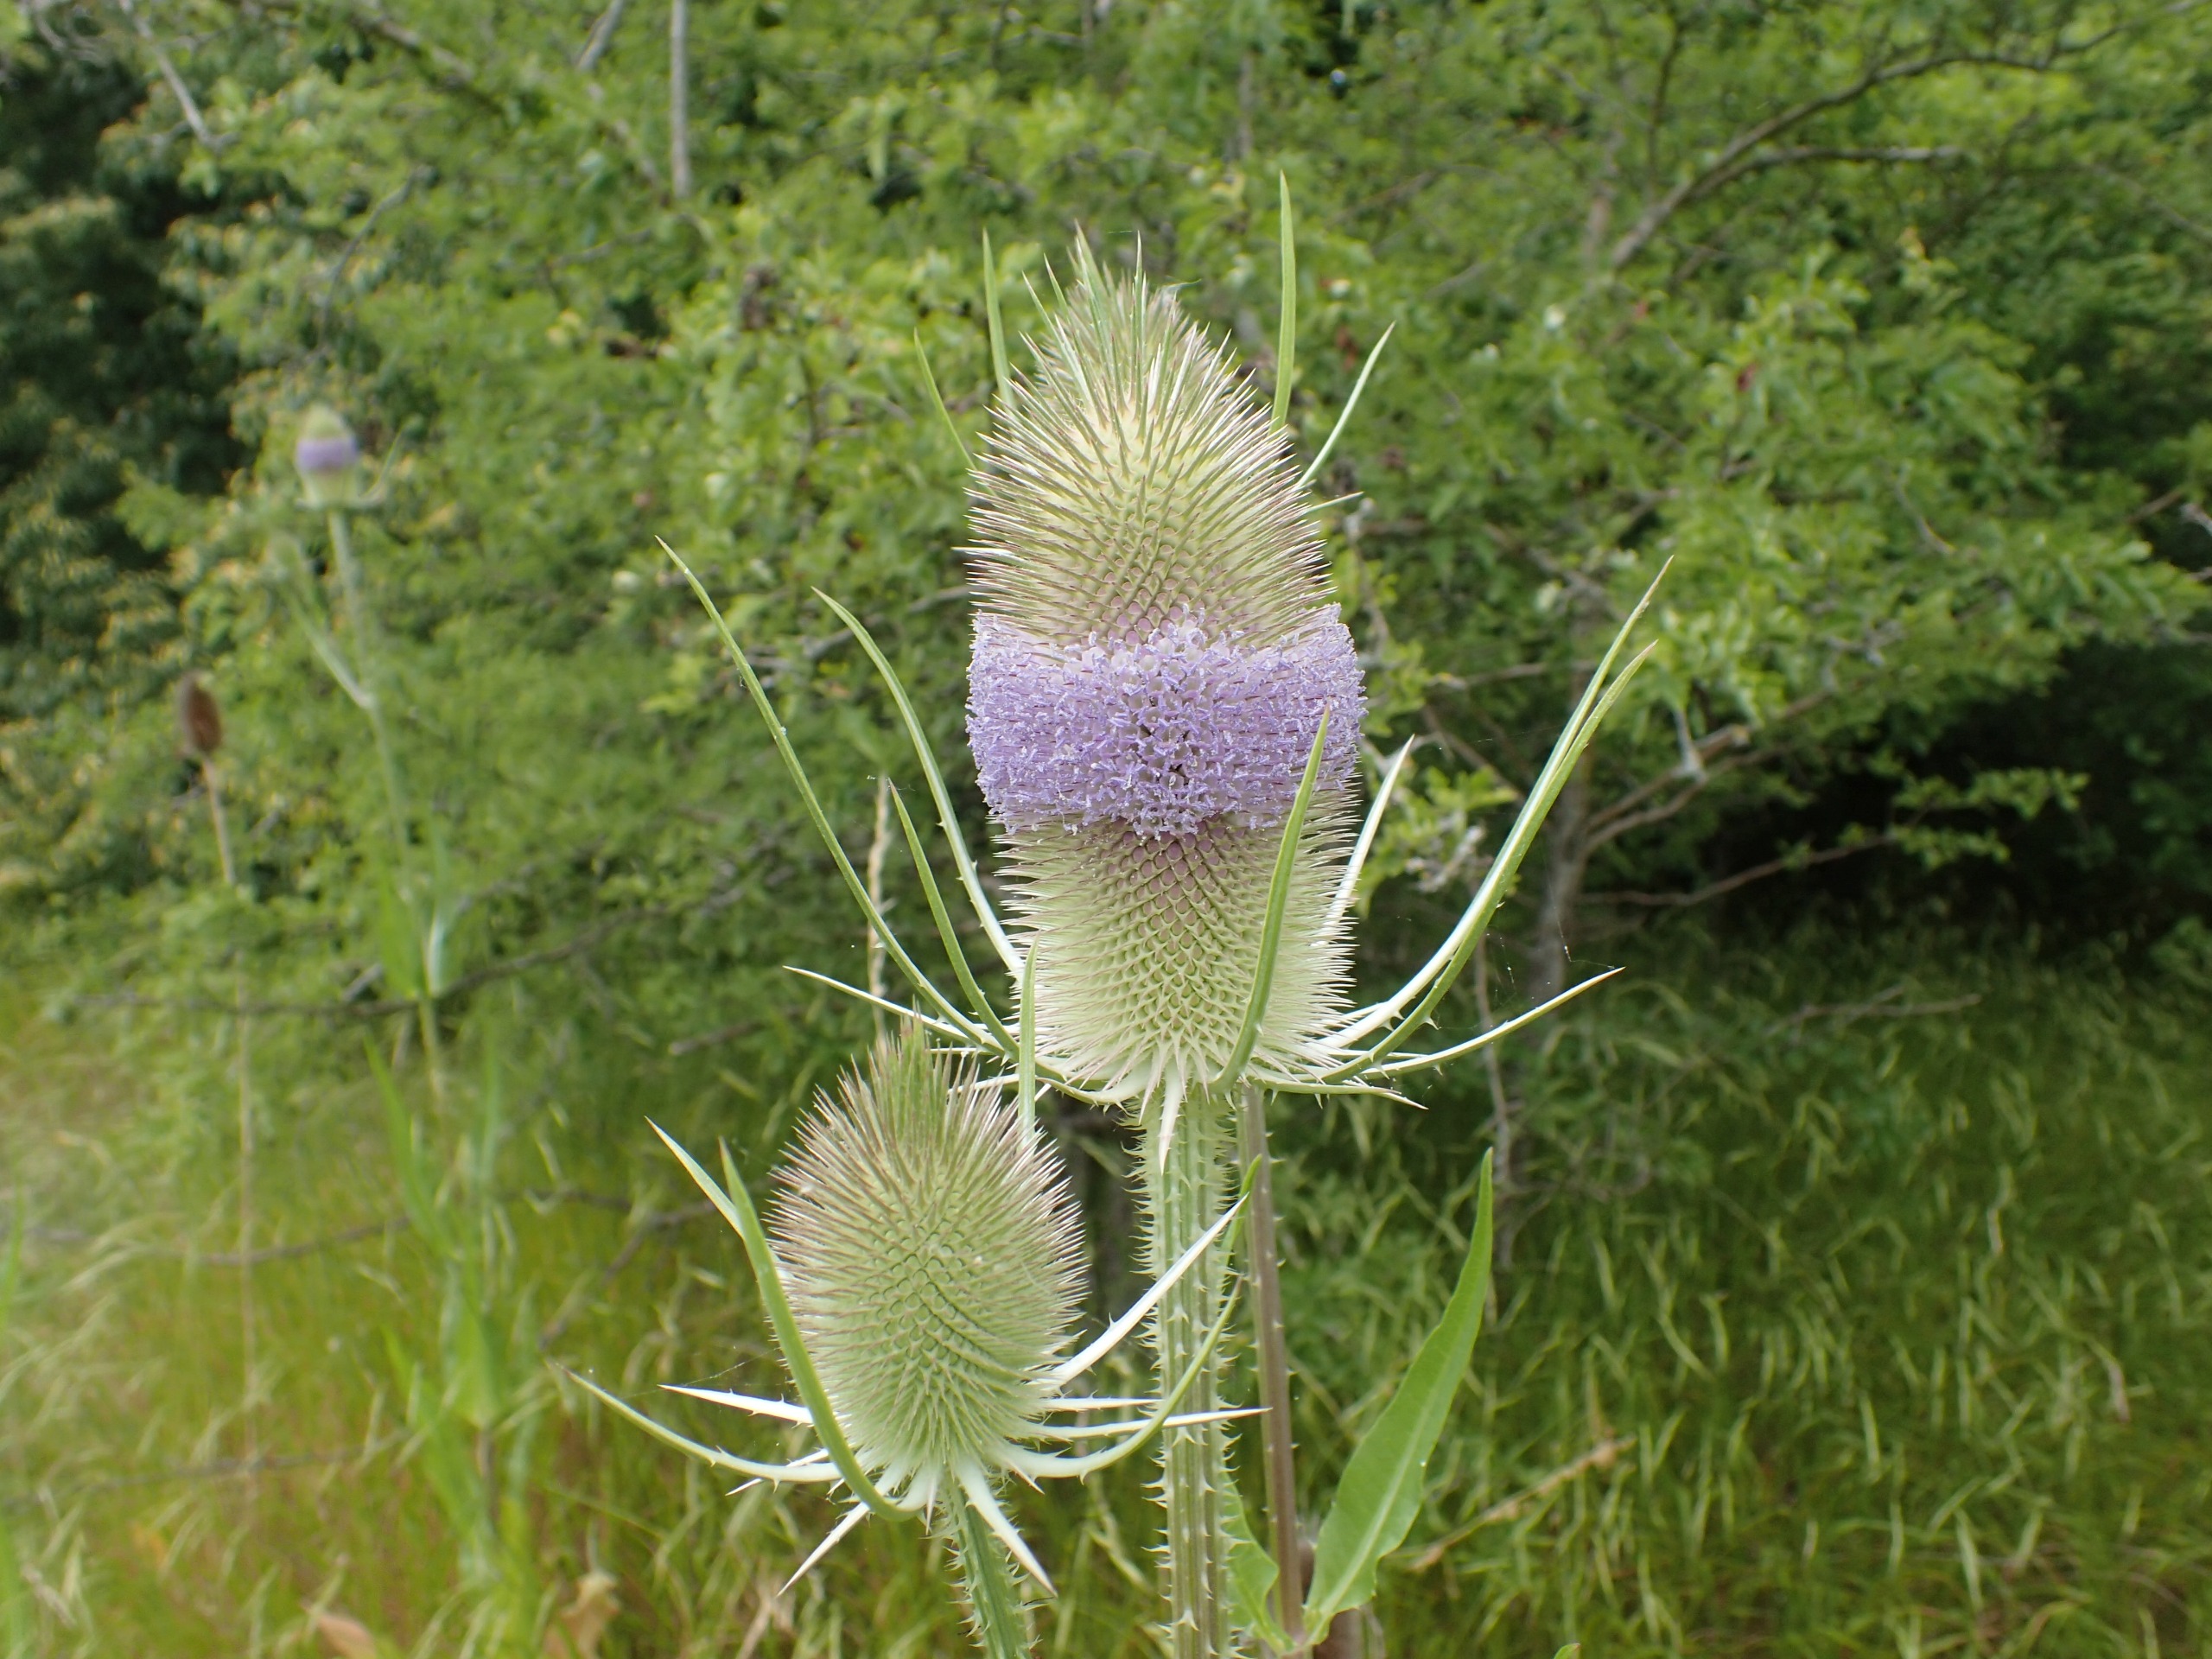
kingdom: Plantae
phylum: Tracheophyta
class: Magnoliopsida
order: Dipsacales
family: Caprifoliaceae
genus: Dipsacus
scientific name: Dipsacus fullonum
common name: Gærde-kartebolle
